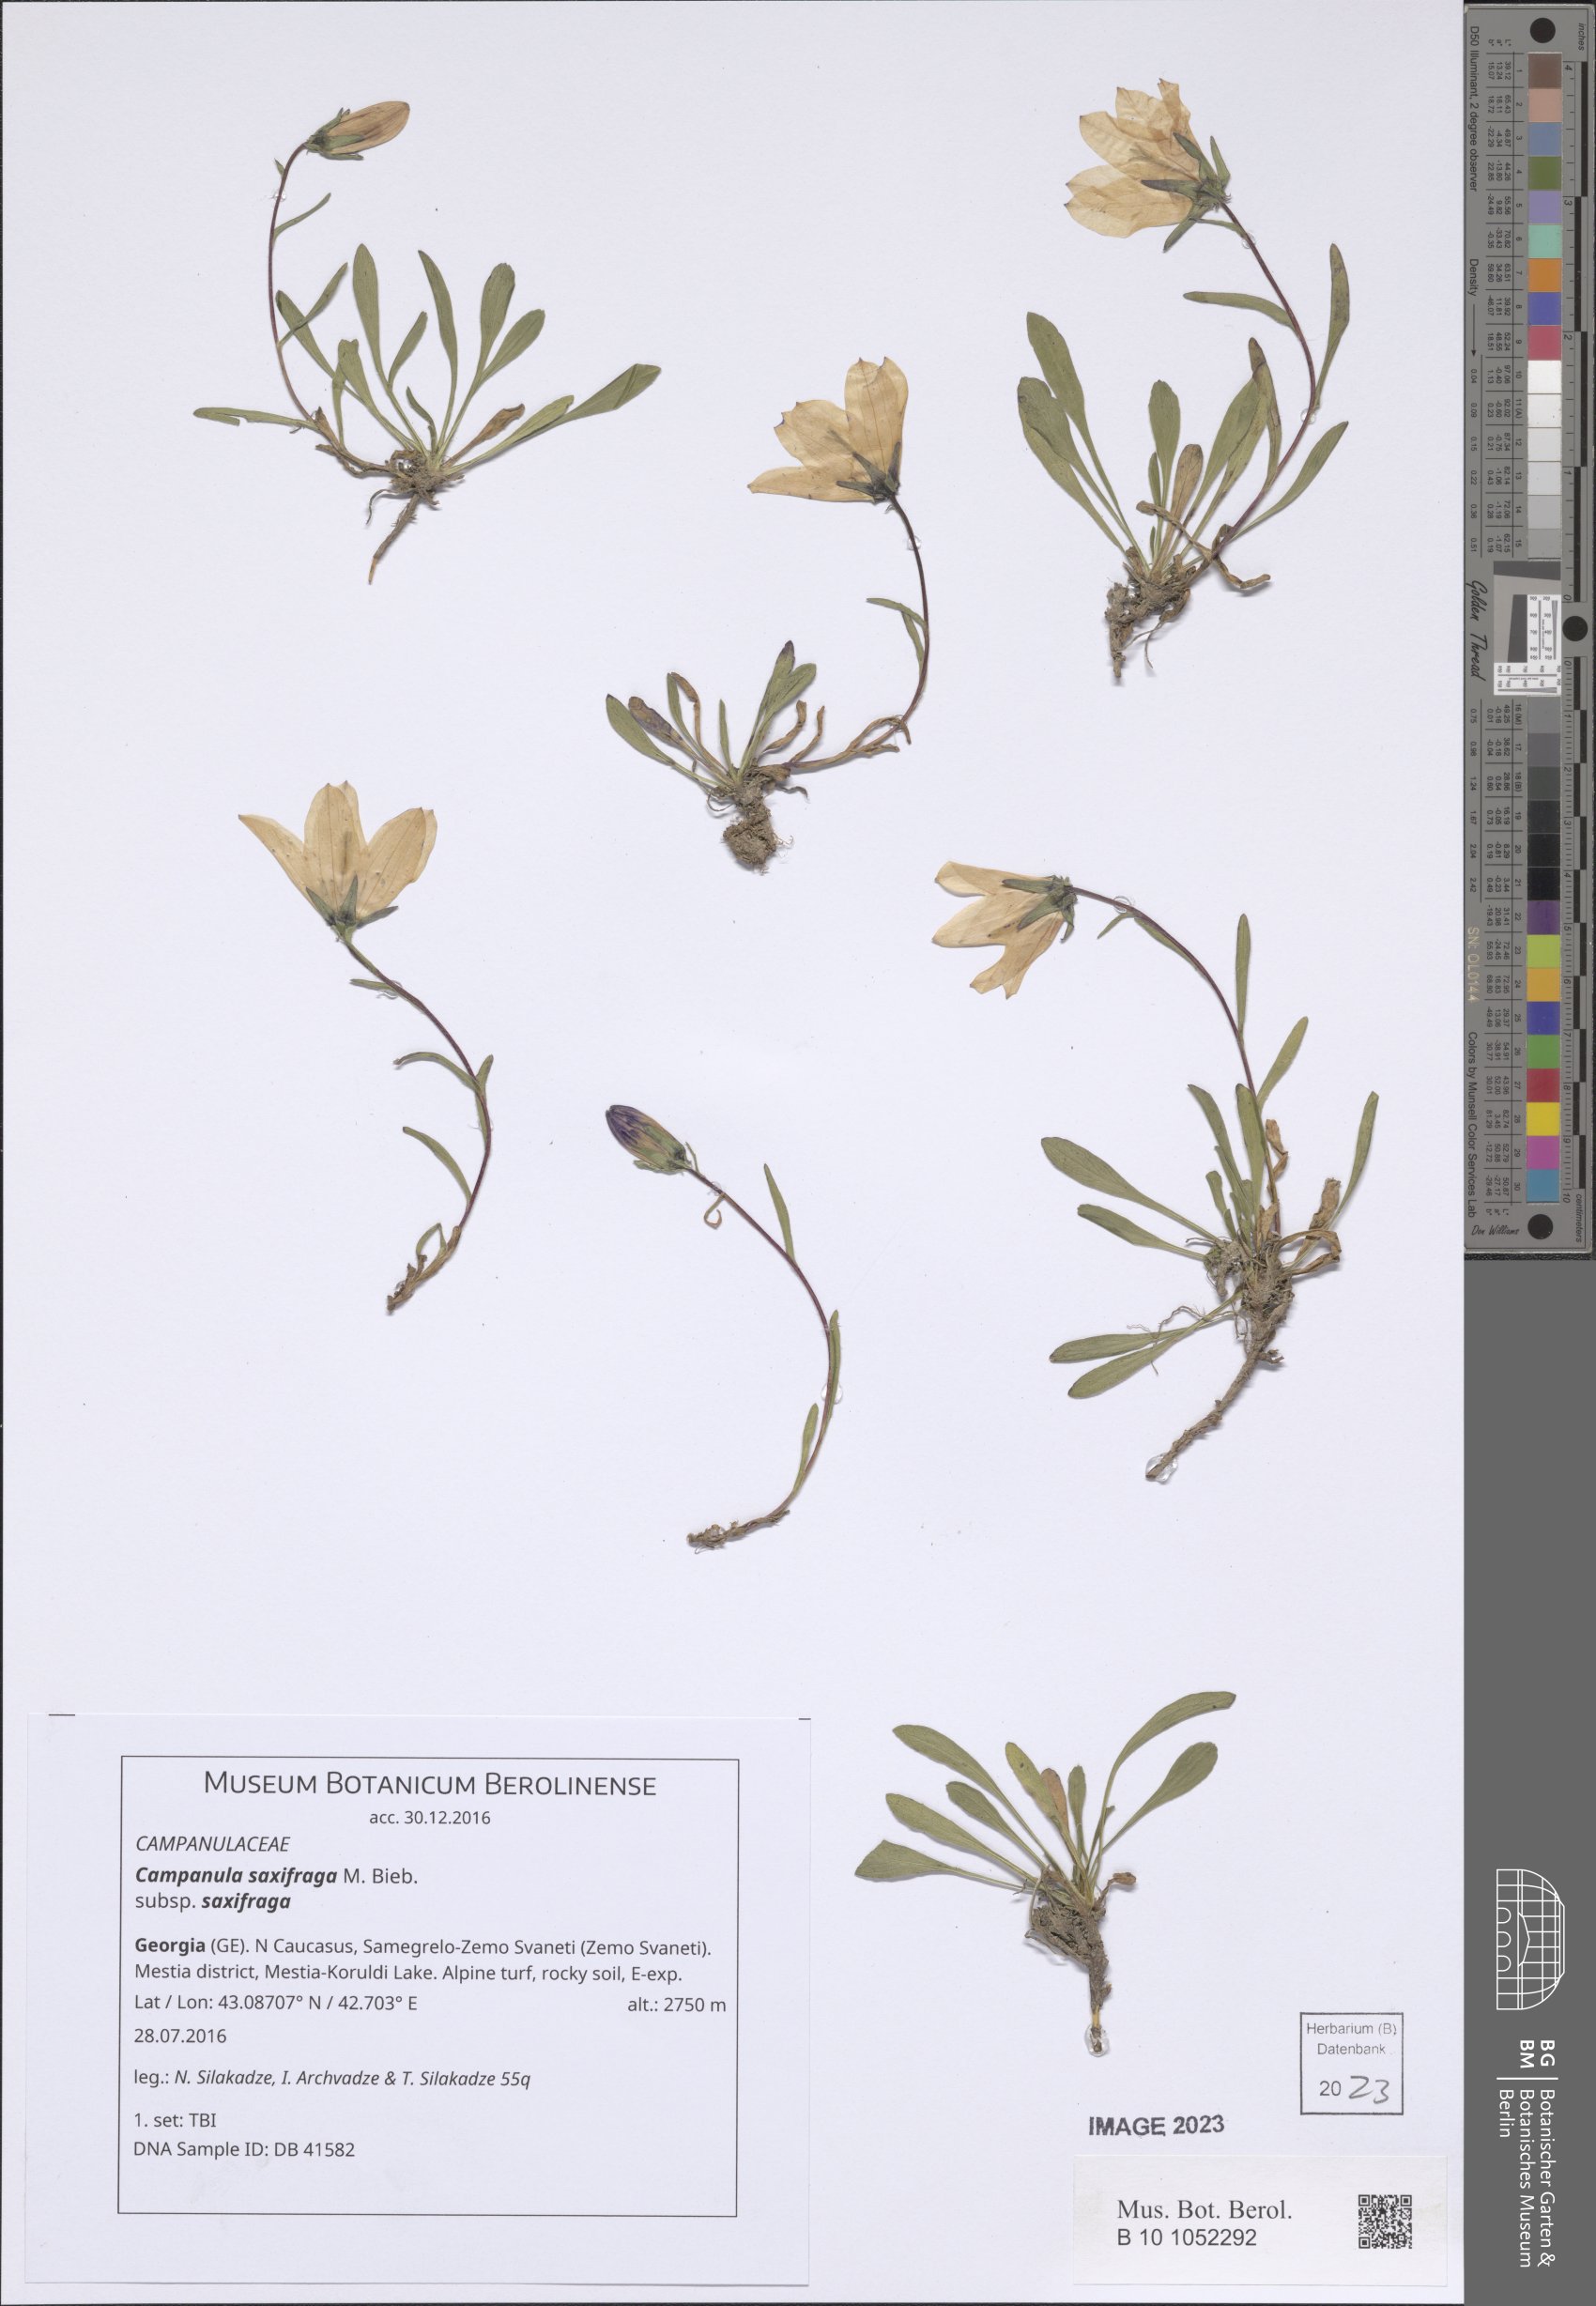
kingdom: Plantae
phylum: Tracheophyta
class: Magnoliopsida
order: Asterales
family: Campanulaceae
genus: Campanula
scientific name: Campanula saxifraga
